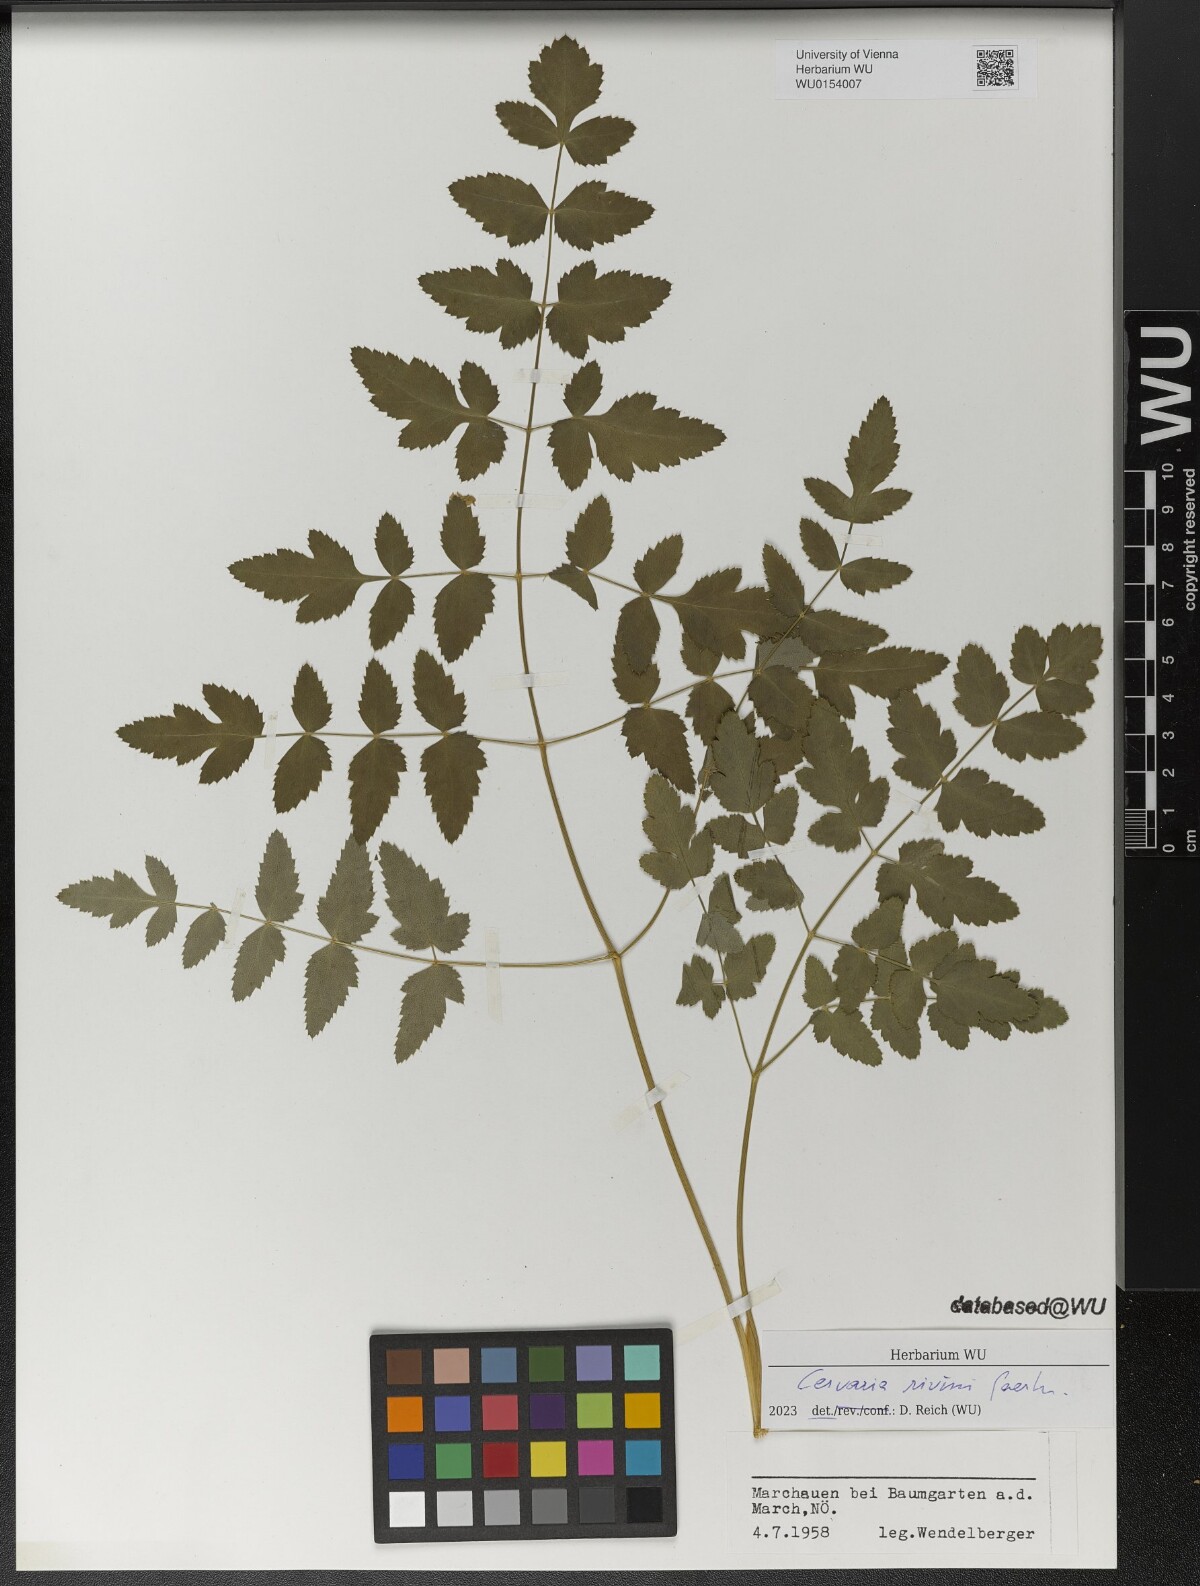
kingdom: Plantae
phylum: Tracheophyta
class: Magnoliopsida
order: Apiales
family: Apiaceae
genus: Cervaria
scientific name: Cervaria rivini
